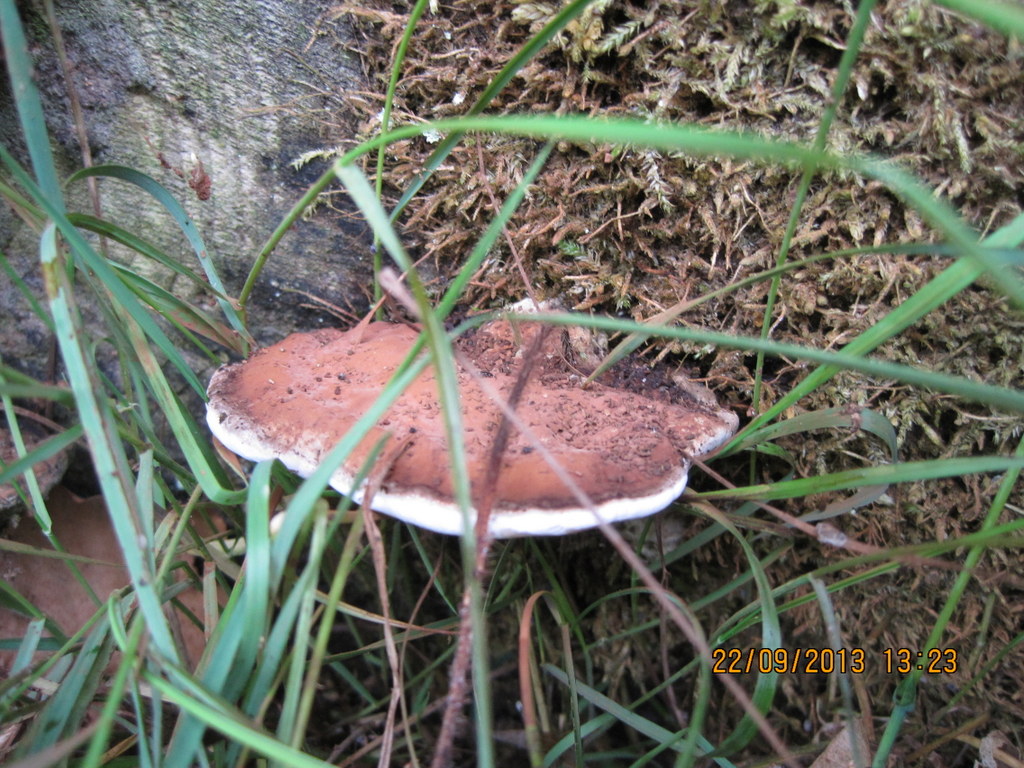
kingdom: Fungi
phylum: Basidiomycota
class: Agaricomycetes
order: Polyporales
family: Polyporaceae
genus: Ganoderma
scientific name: Ganoderma applanatum
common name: flad lakporesvamp
